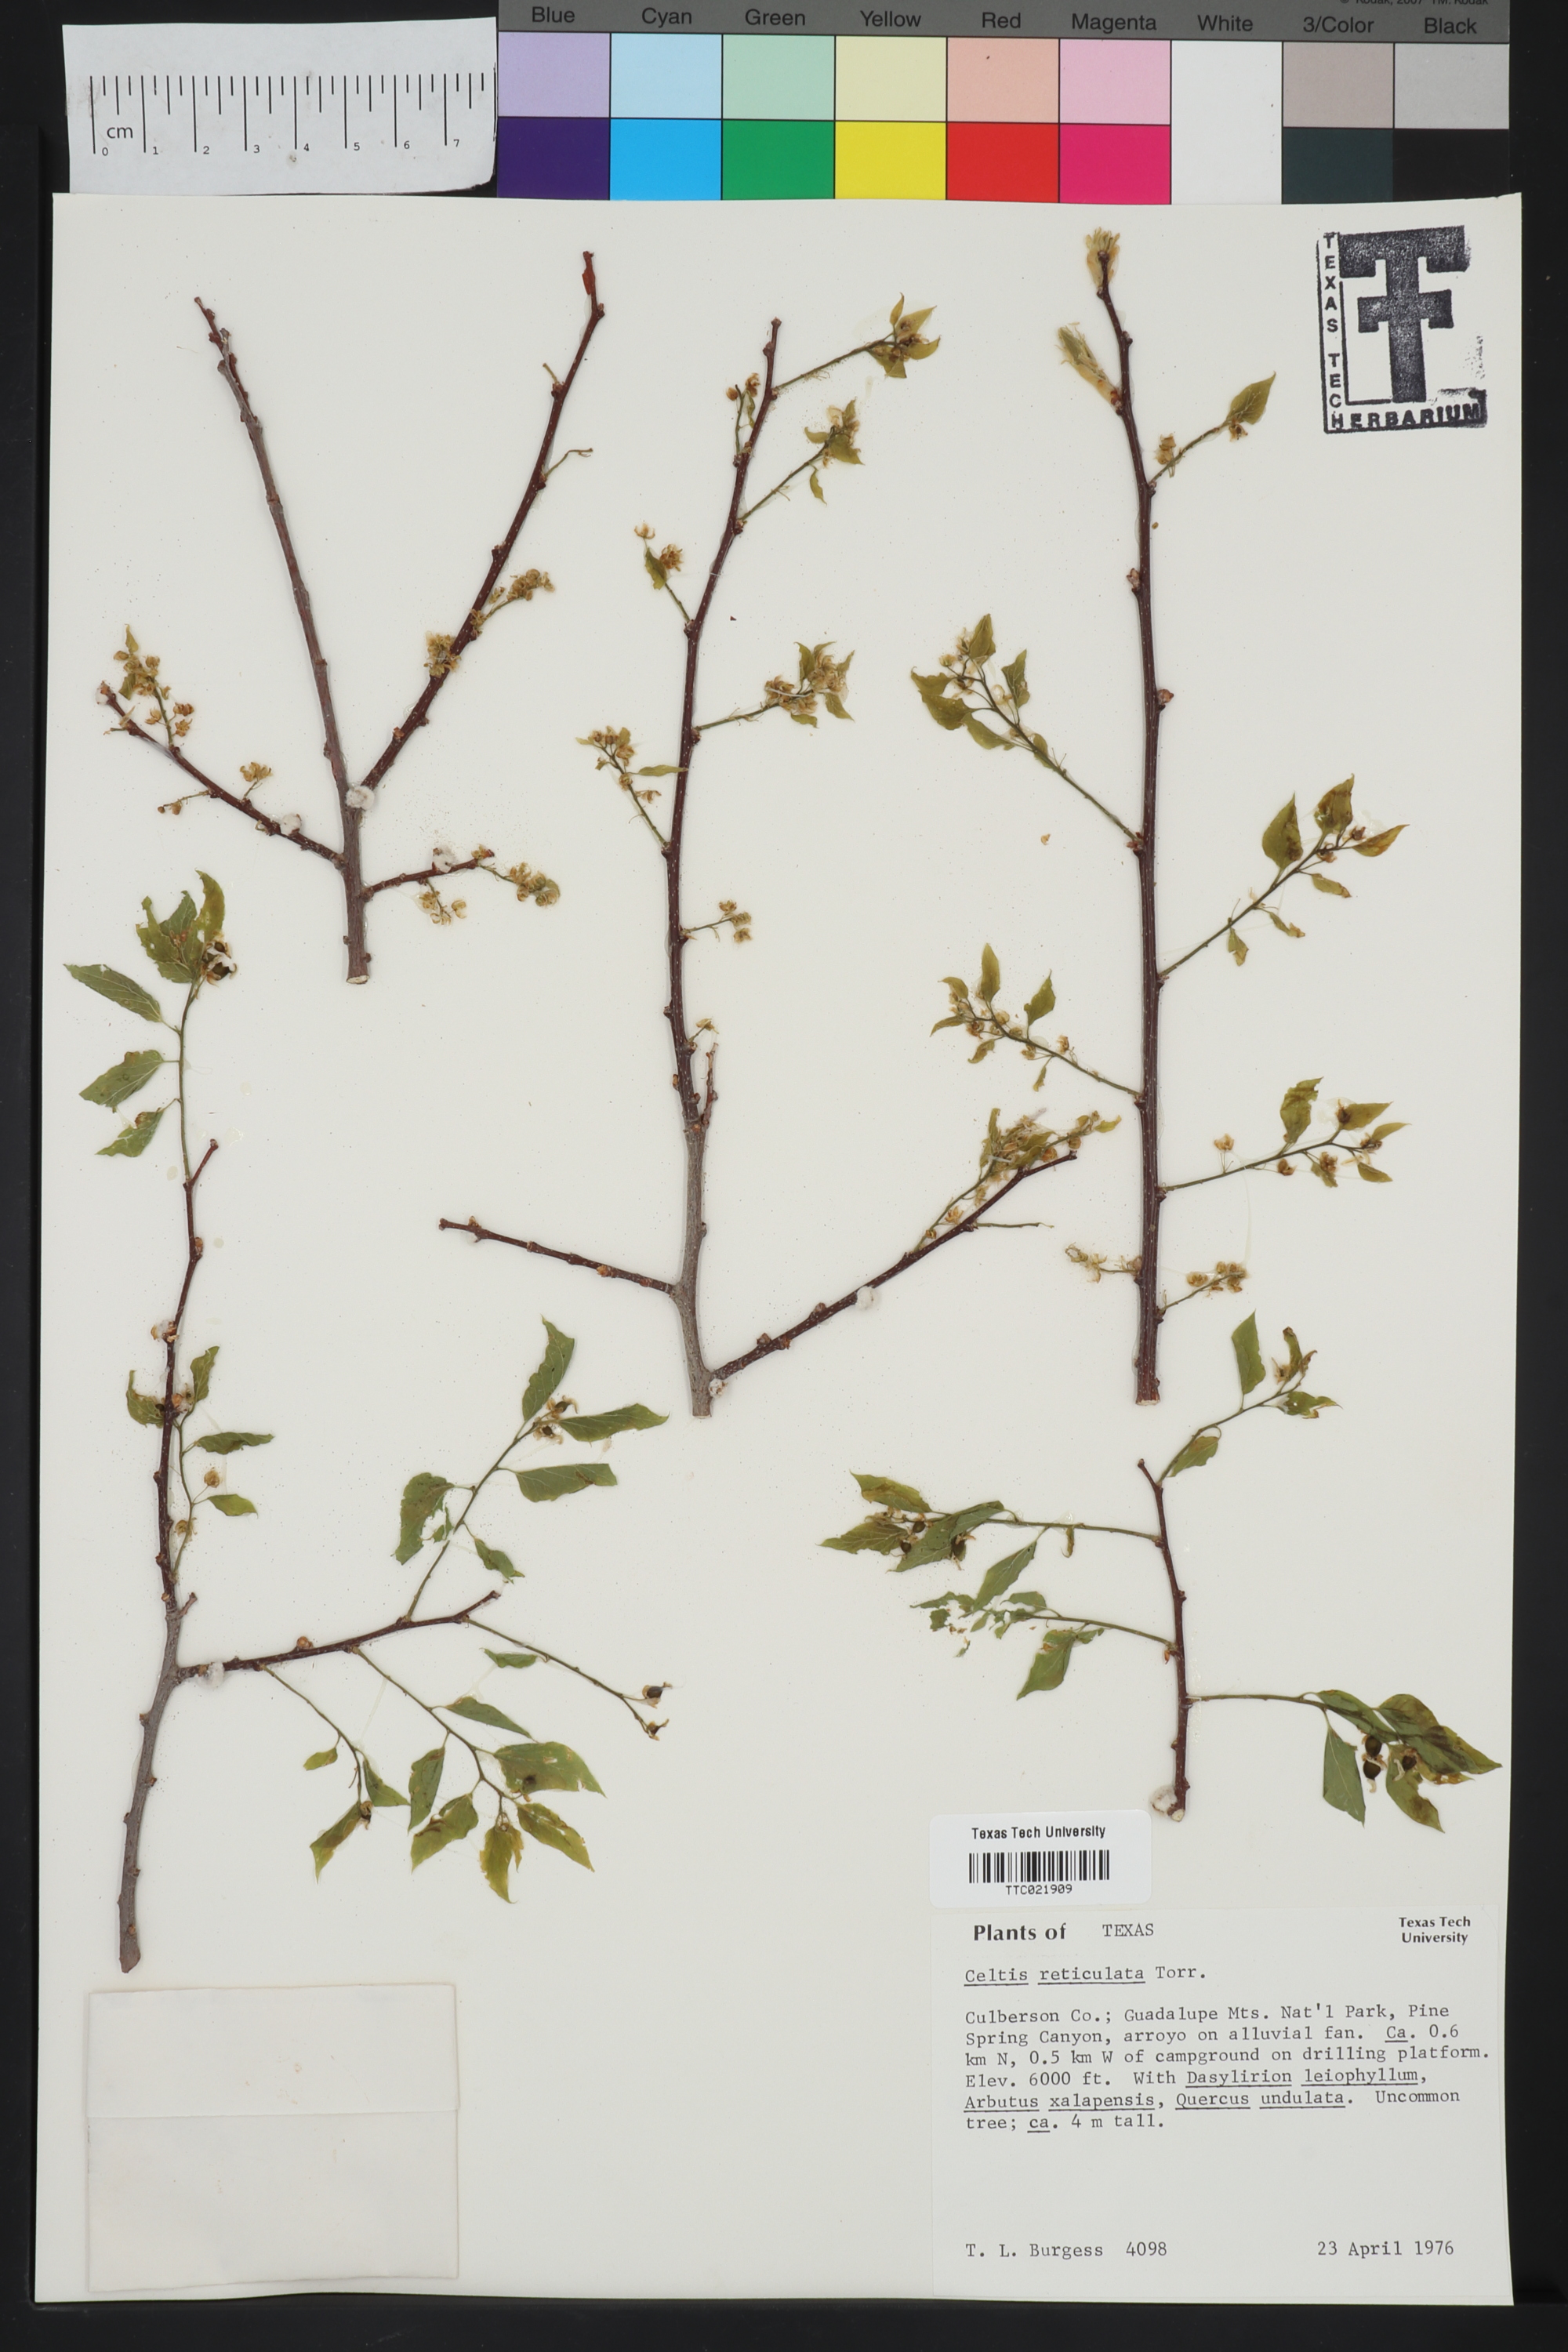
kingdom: Plantae
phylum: Tracheophyta
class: Magnoliopsida
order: Rosales
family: Cannabaceae
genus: Celtis
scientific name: Celtis reticulata
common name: Netleaf hackberry
